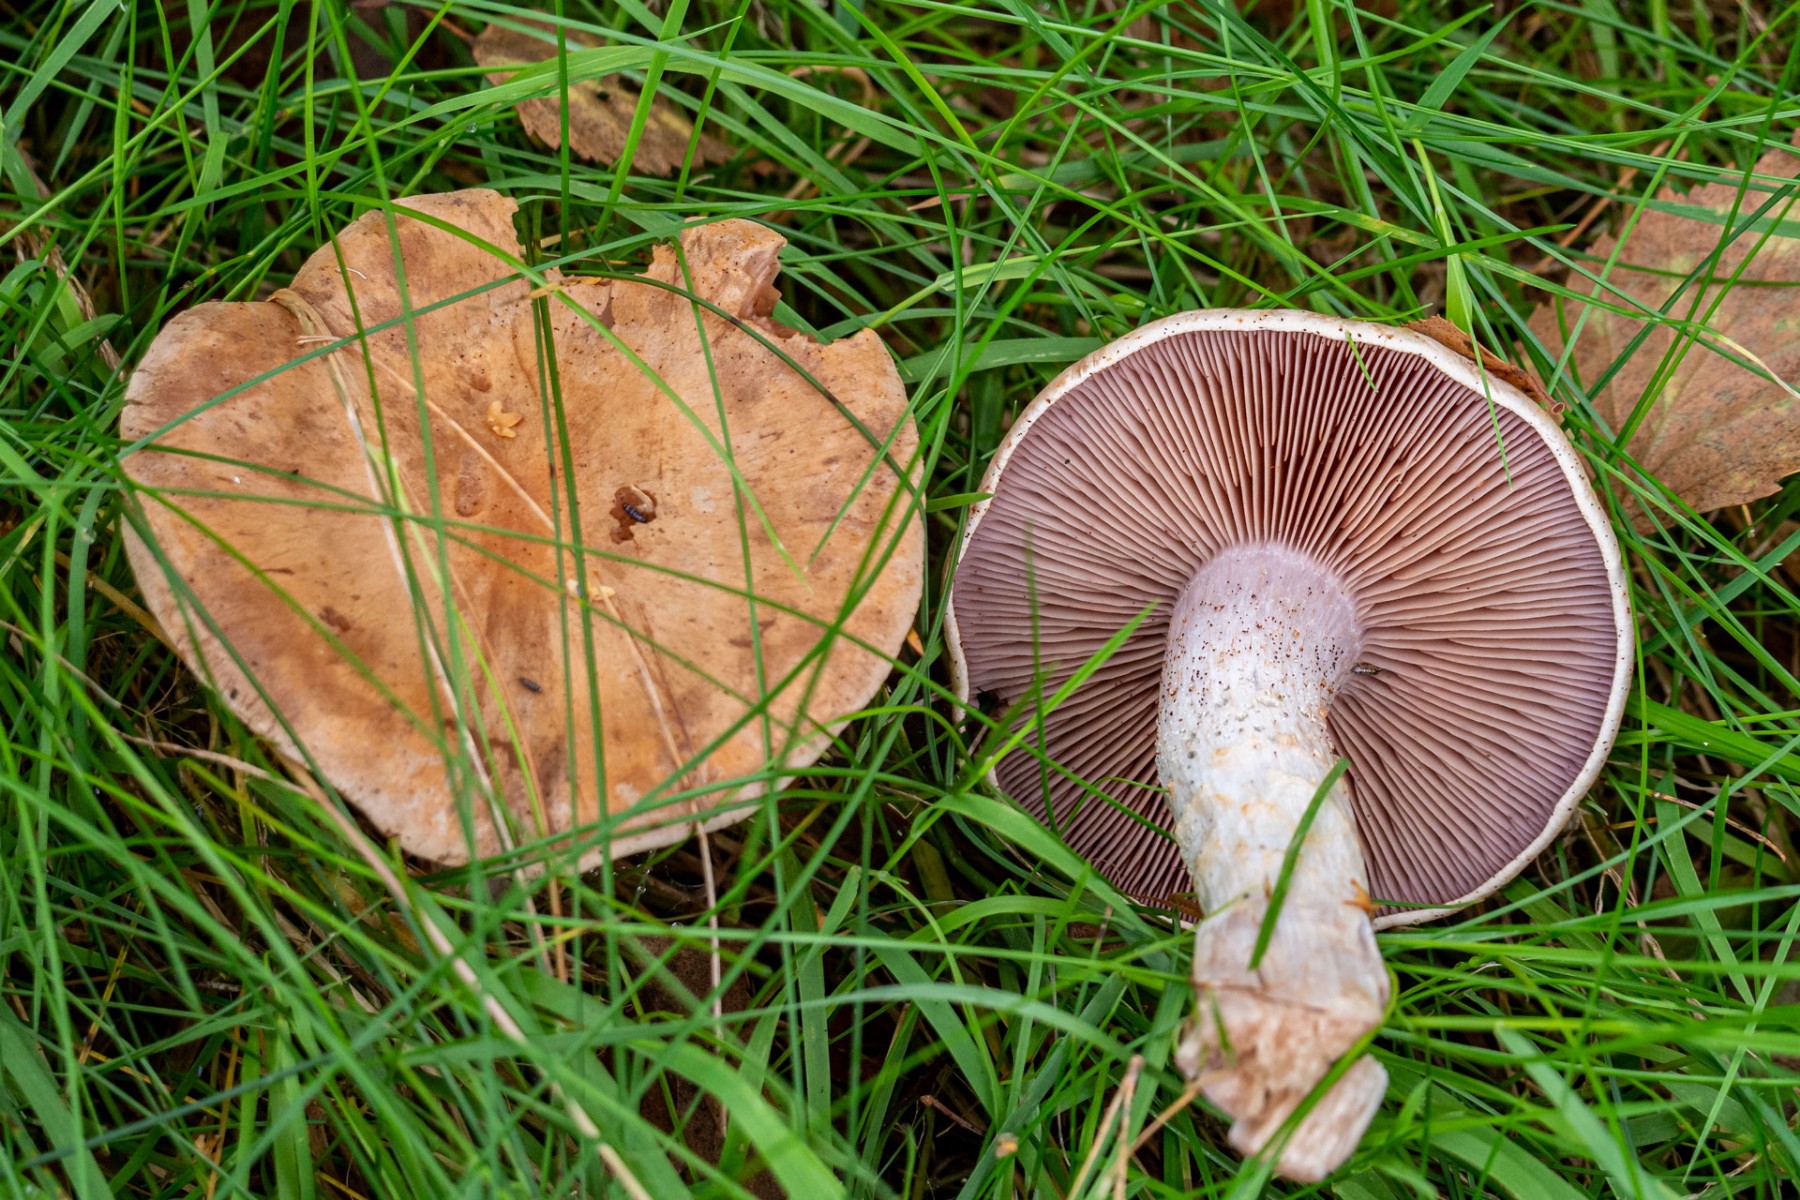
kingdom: Fungi
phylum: Basidiomycota
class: Agaricomycetes
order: Agaricales
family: Cortinariaceae
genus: Cortinarius
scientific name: Cortinarius
